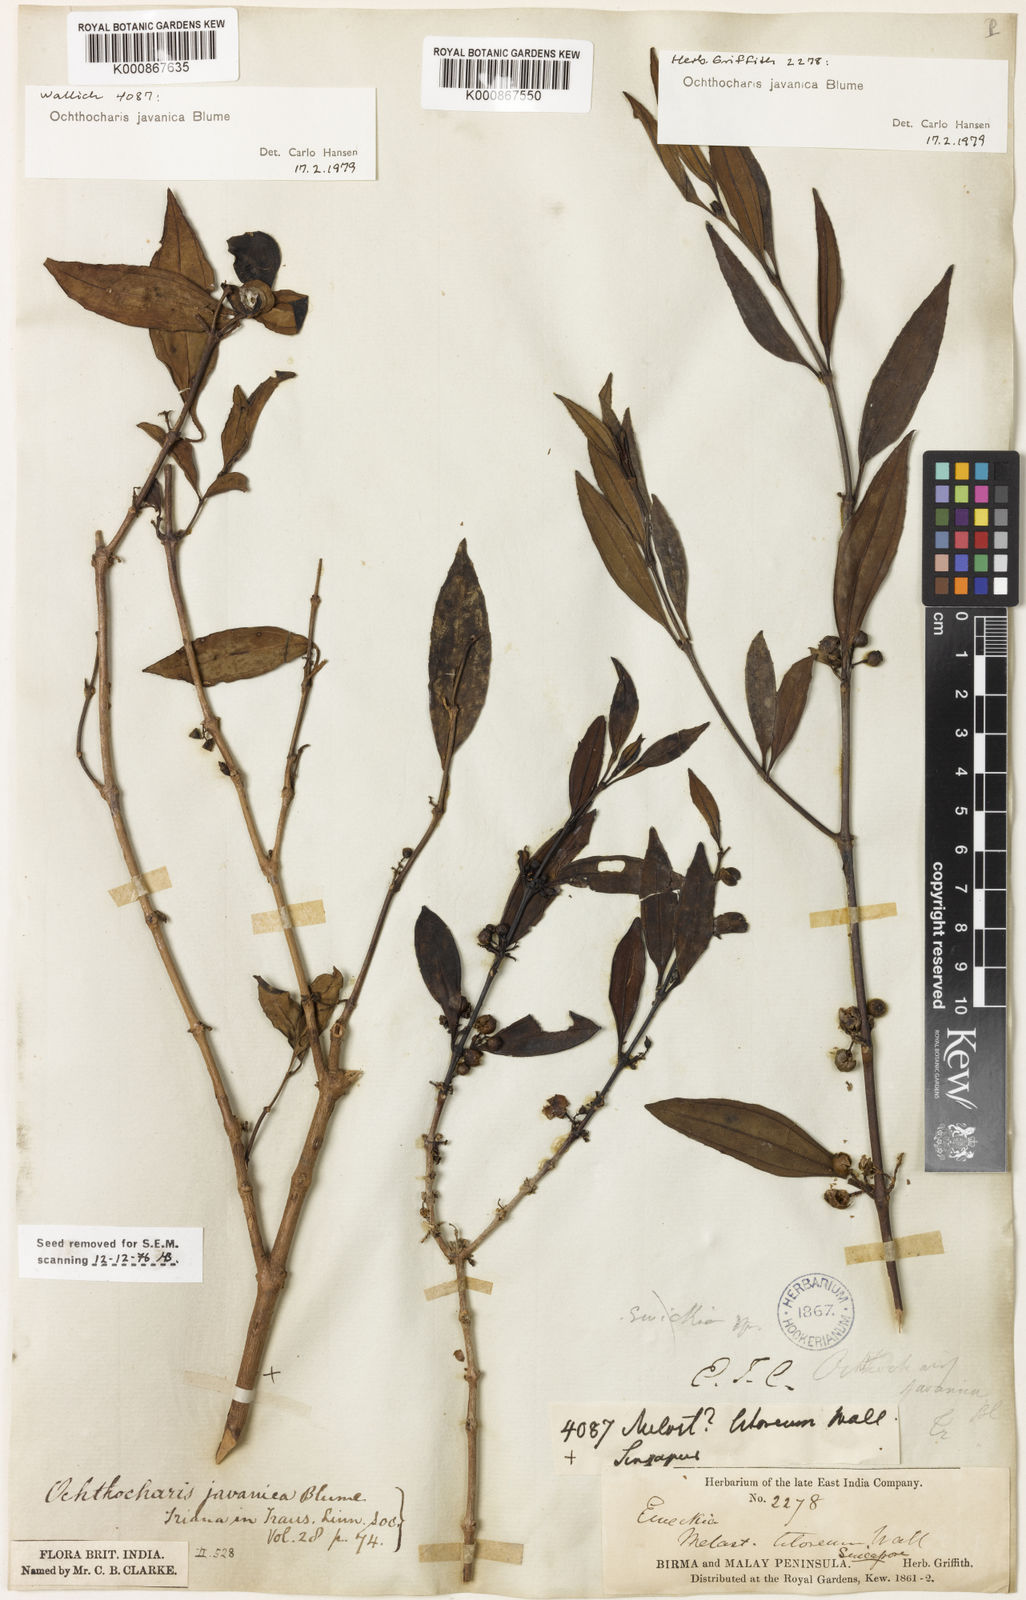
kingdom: Plantae
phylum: Tracheophyta
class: Magnoliopsida
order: Myrtales
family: Melastomataceae
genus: Ochthocharis
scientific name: Ochthocharis javanica
